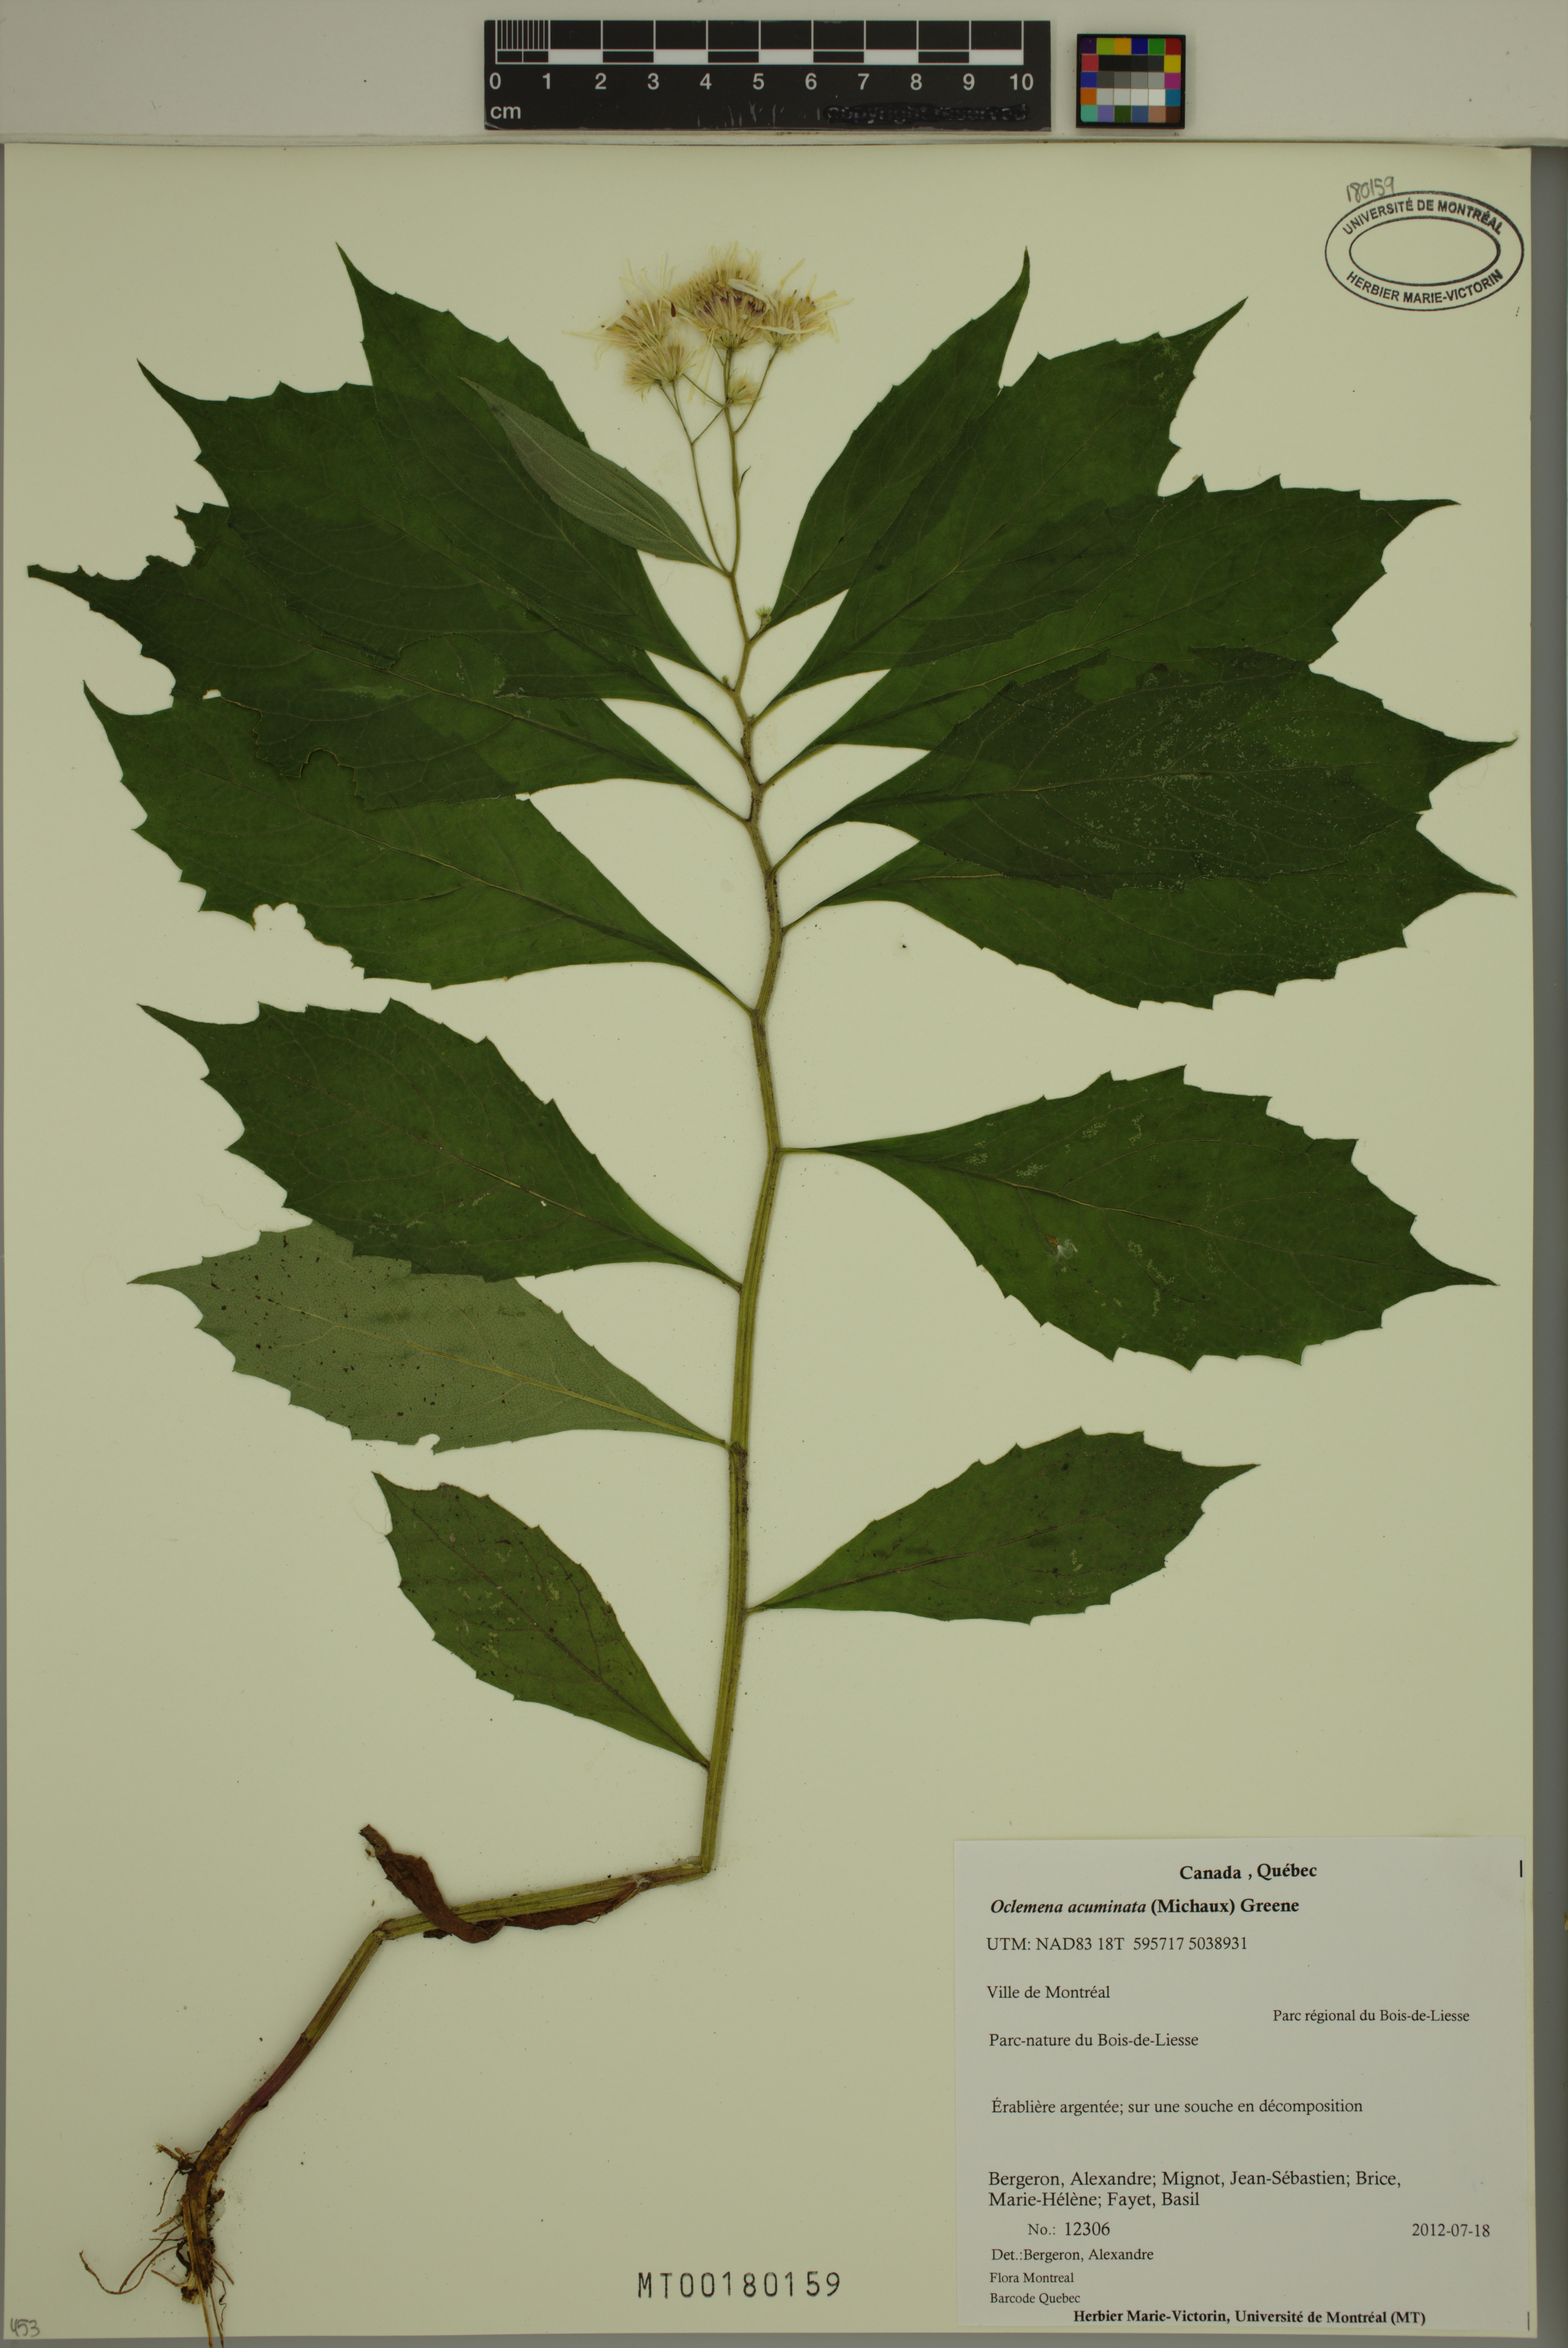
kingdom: Plantae
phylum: Tracheophyta
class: Magnoliopsida
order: Asterales
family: Asteraceae
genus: Oclemena
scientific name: Oclemena acuminata
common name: Mountain aster
